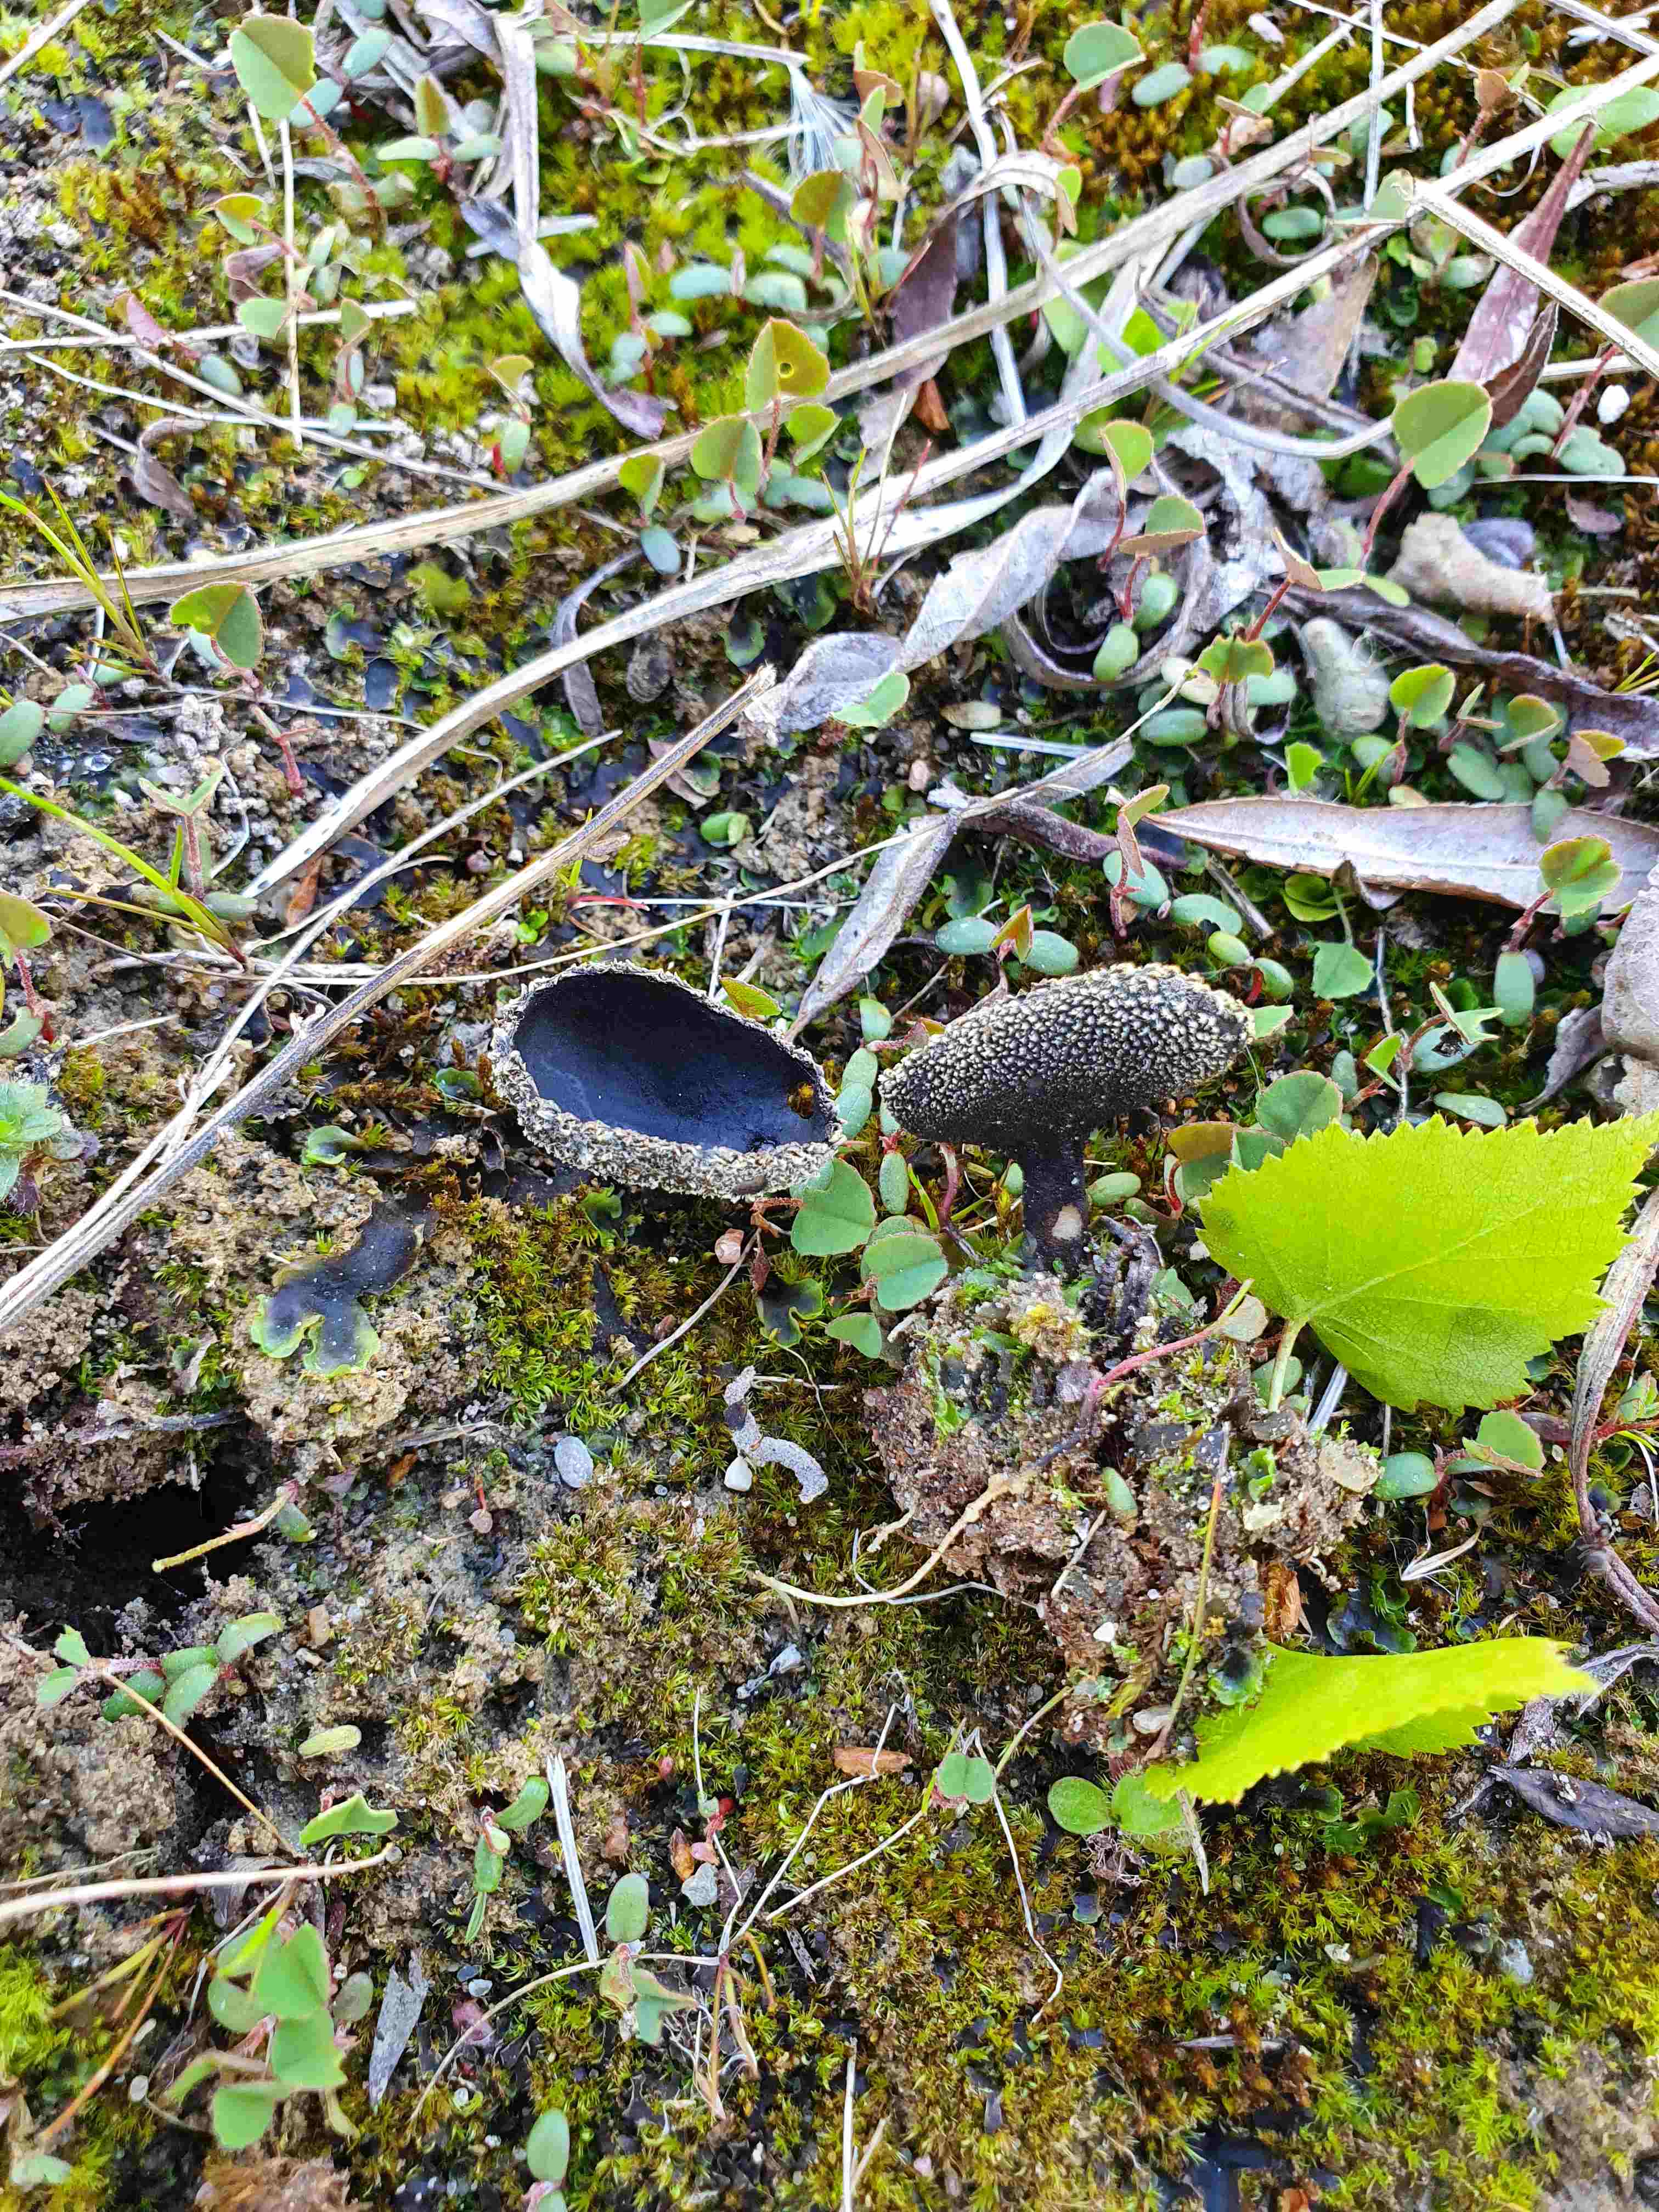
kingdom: Fungi
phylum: Ascomycota
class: Pezizomycetes
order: Pezizales
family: Helvellaceae
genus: Helvella
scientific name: Helvella corium
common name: pile-foldhat
